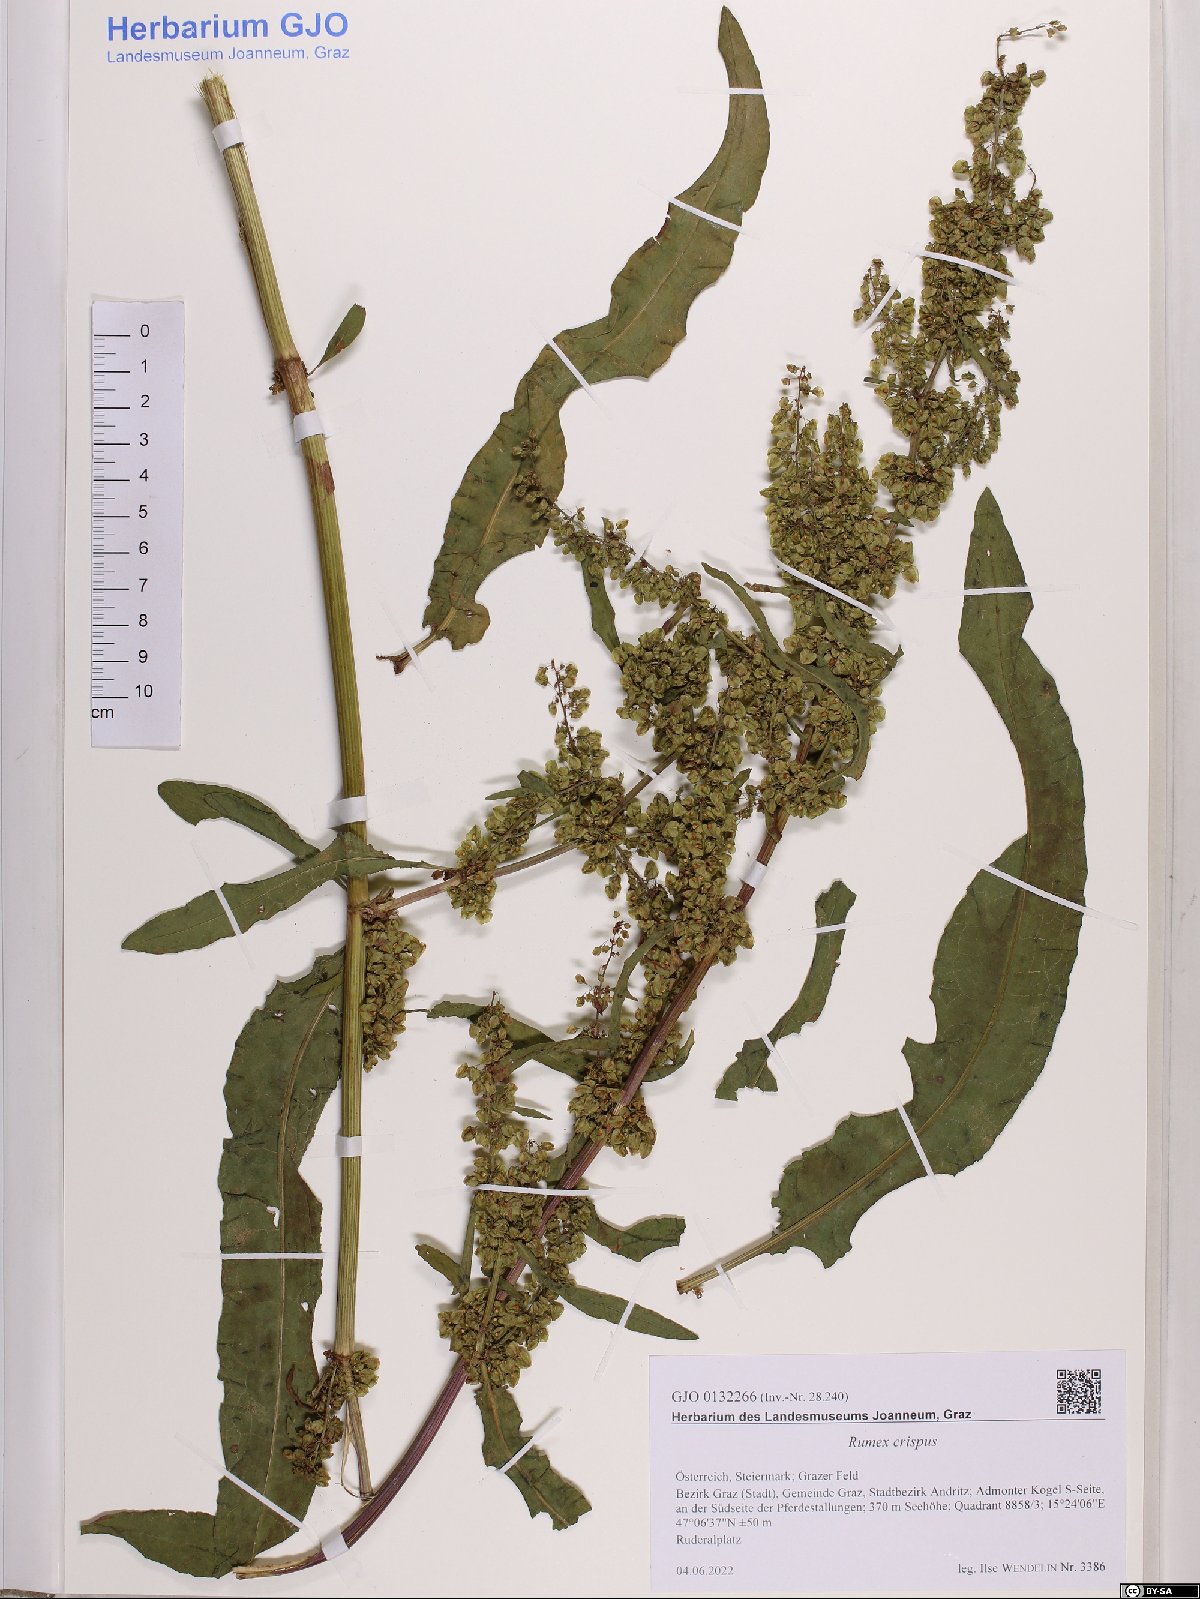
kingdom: Plantae
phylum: Tracheophyta
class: Magnoliopsida
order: Caryophyllales
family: Polygonaceae
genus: Rumex
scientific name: Rumex crispus
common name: Curled dock
